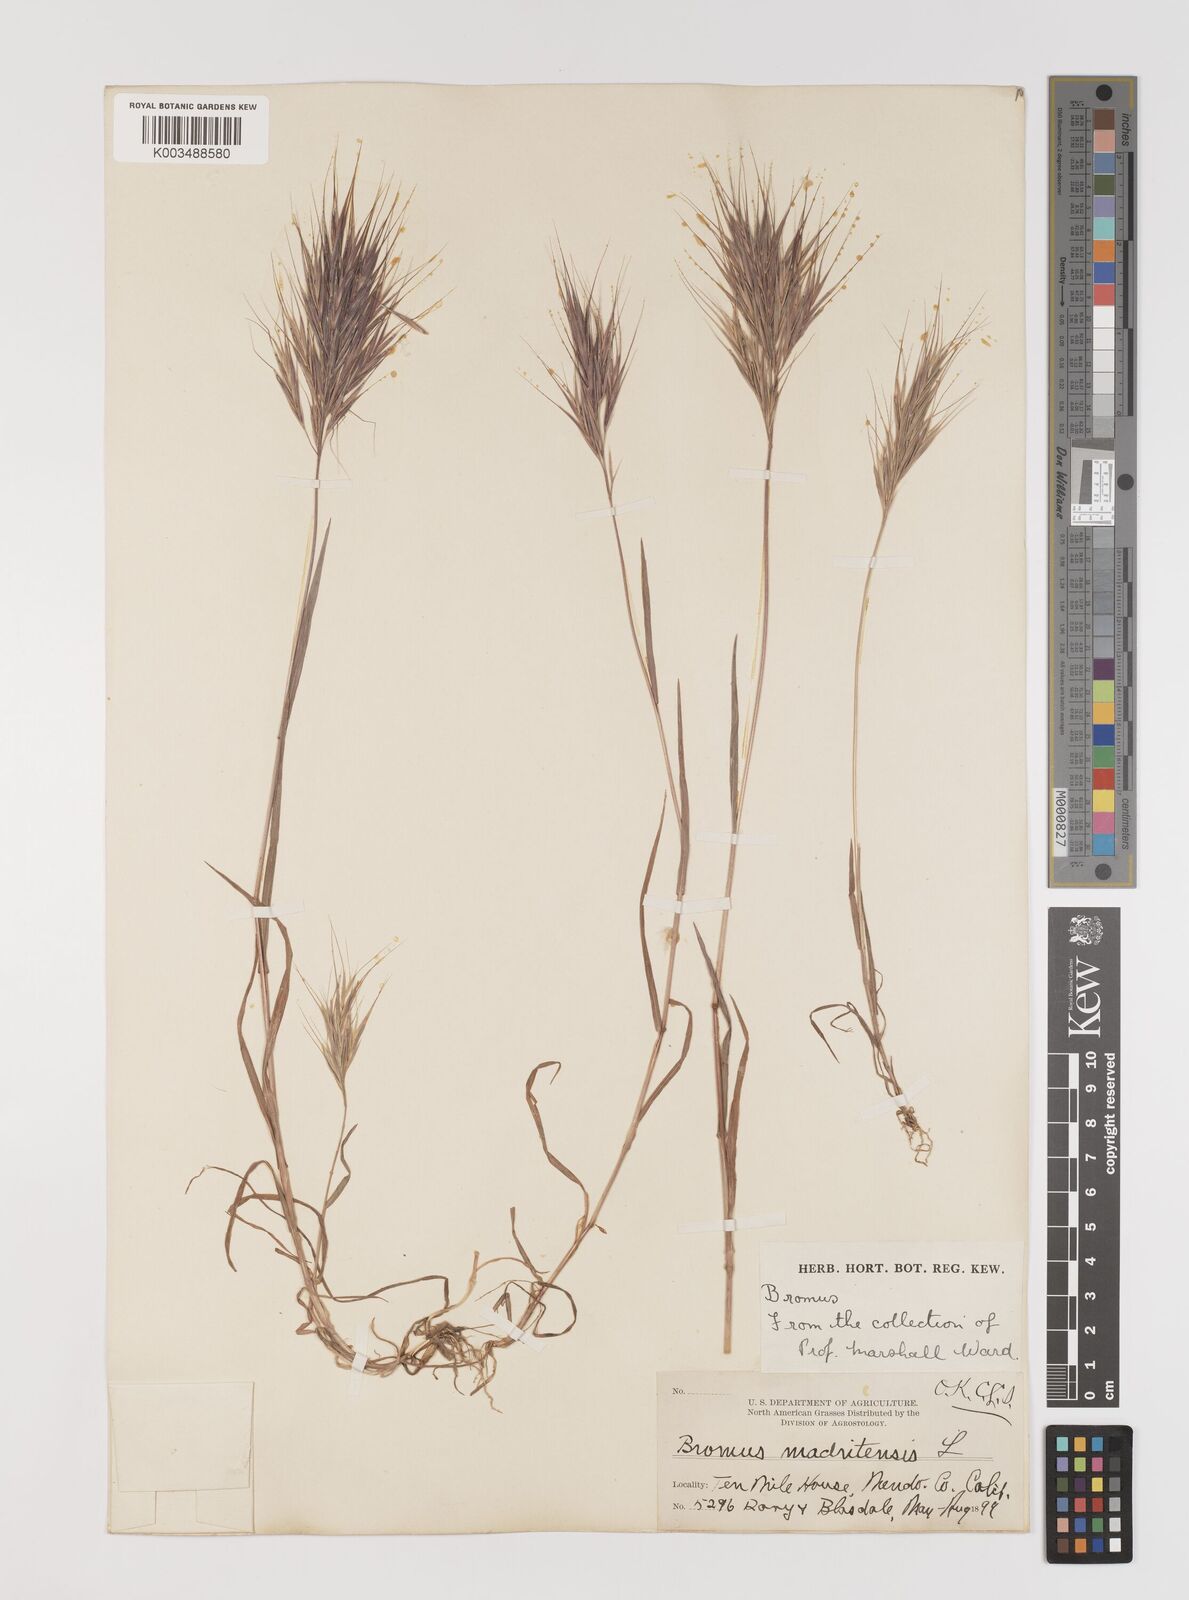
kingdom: Plantae
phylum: Tracheophyta
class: Liliopsida
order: Poales
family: Poaceae
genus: Bromus
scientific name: Bromus madritensis
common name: Compact brome
